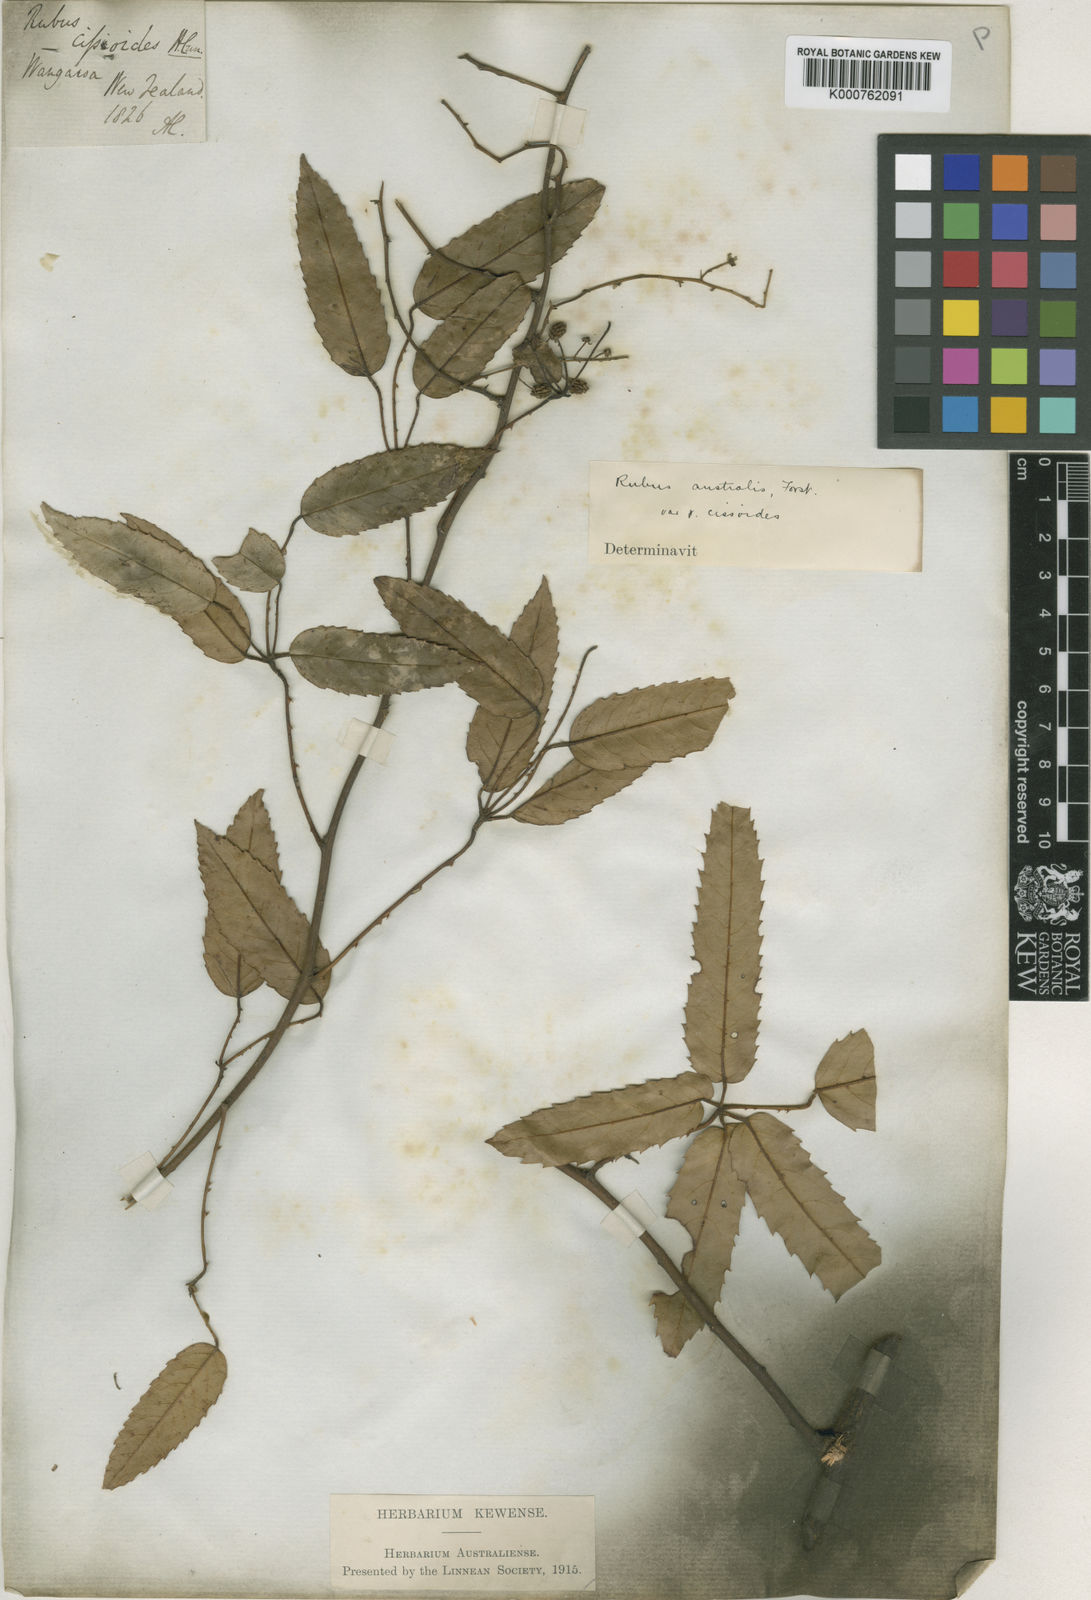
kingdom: Plantae
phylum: Tracheophyta
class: Magnoliopsida
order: Rosales
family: Rosaceae
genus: Rubus
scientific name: Rubus cissoides
